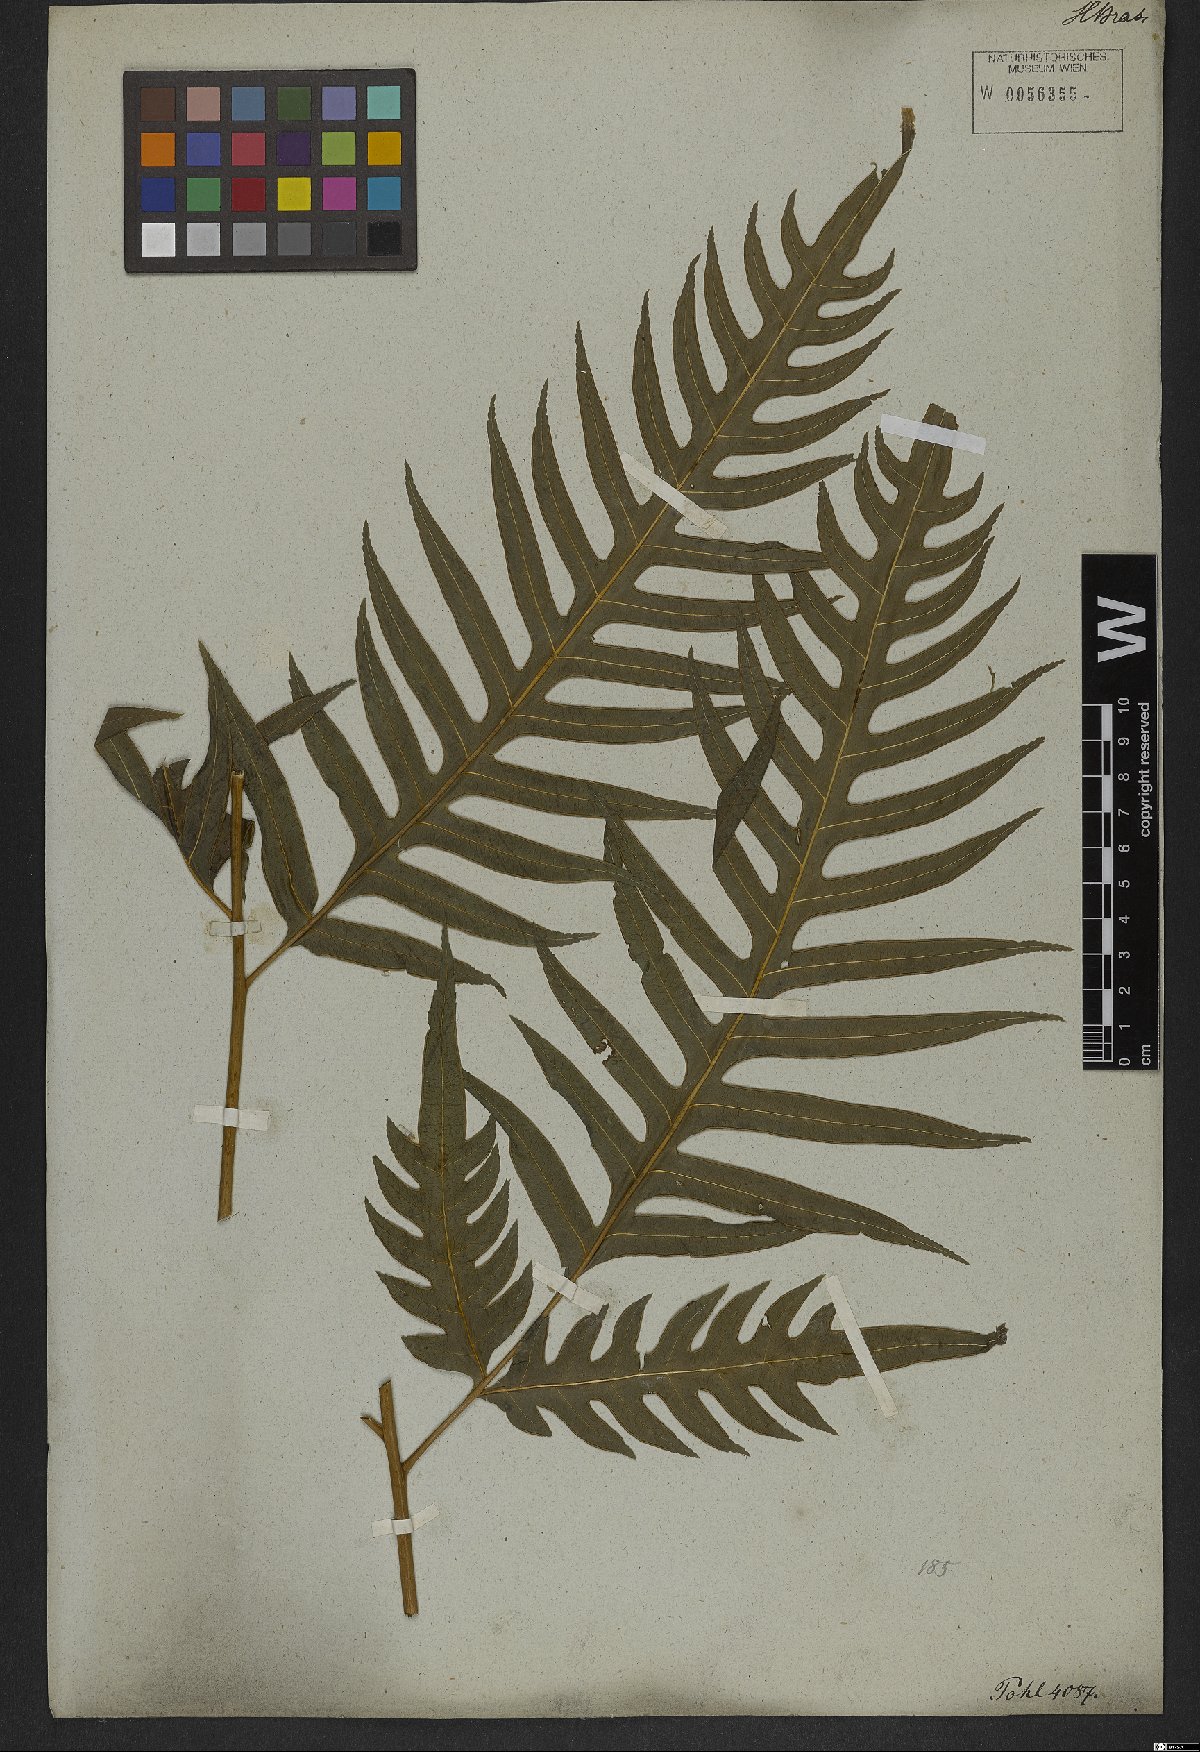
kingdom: Plantae
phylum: Tracheophyta
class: Polypodiopsida
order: Polypodiales
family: Pteridaceae
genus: Pteris
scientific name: Pteris altissima
